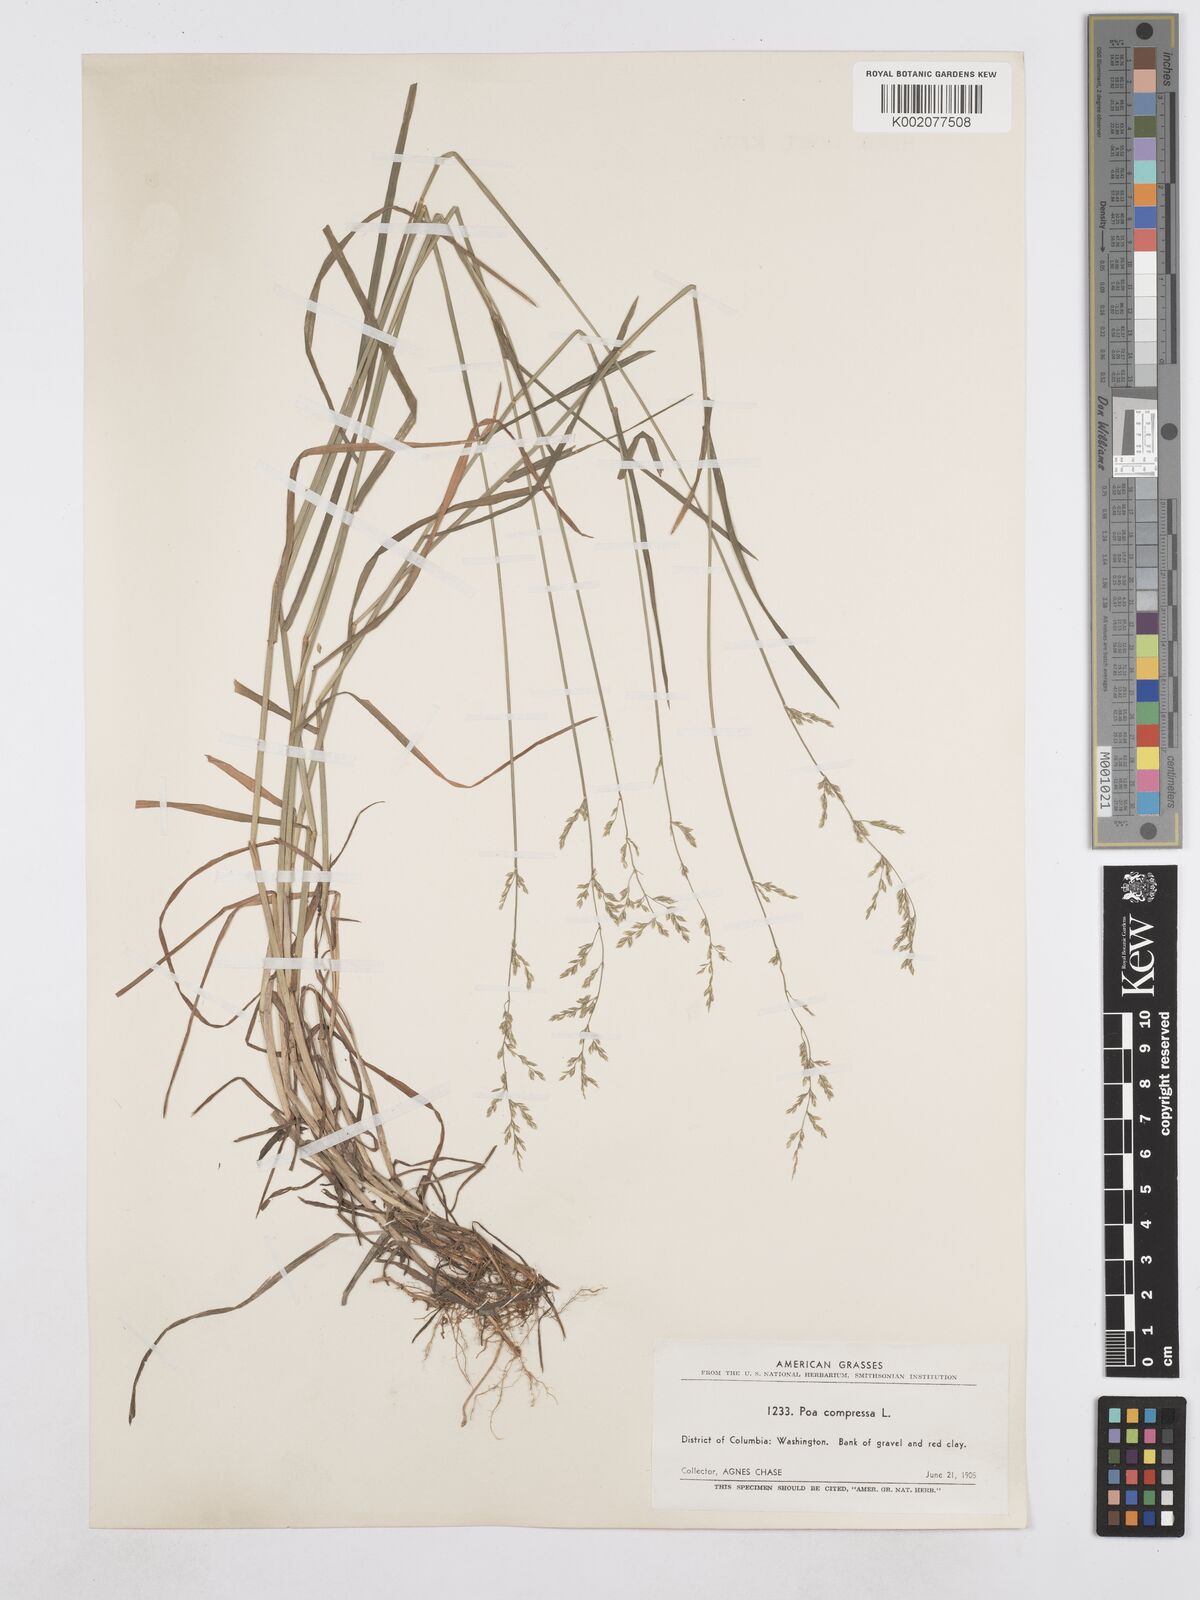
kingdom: Plantae
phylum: Tracheophyta
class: Liliopsida
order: Poales
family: Poaceae
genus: Poa
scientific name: Poa compressa
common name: Canada bluegrass
